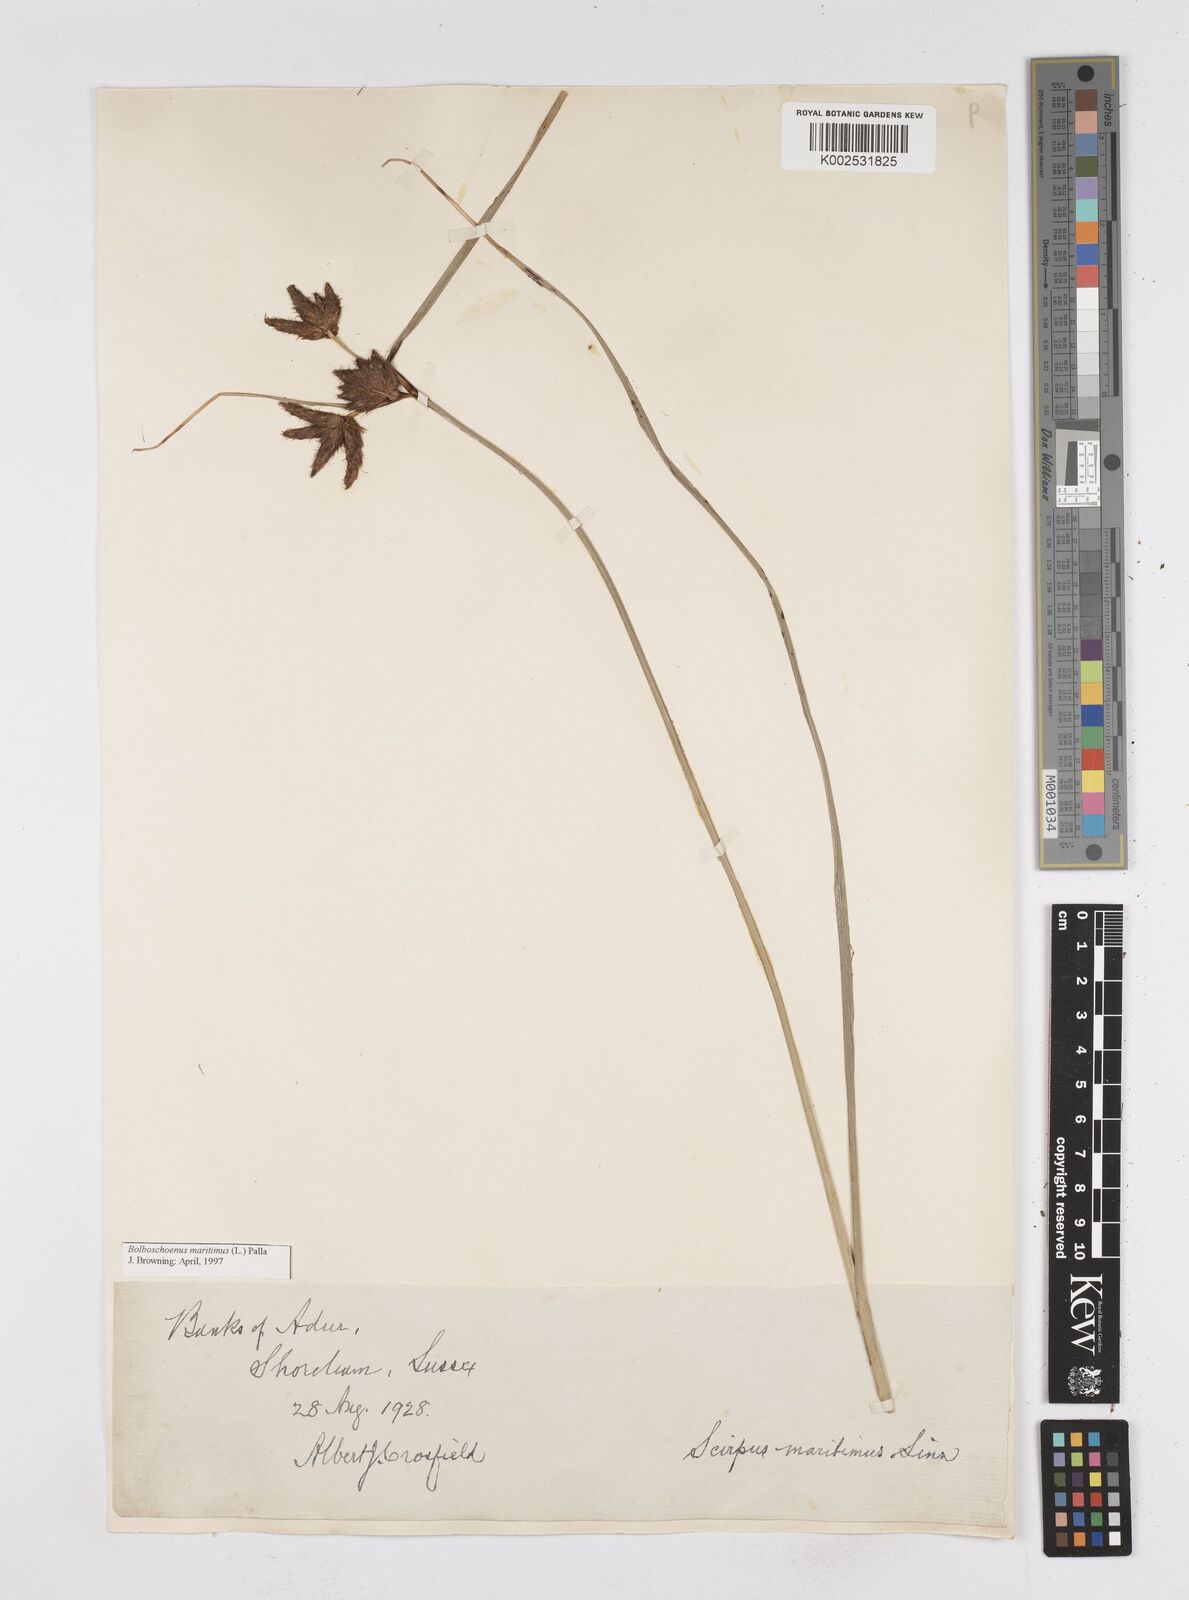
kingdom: Plantae
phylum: Tracheophyta
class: Liliopsida
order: Poales
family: Cyperaceae
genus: Bolboschoenus
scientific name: Bolboschoenus maritimus
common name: Sea club-rush
